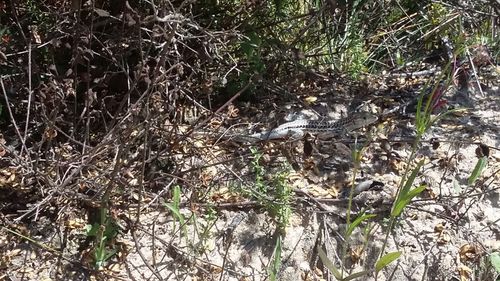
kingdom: Animalia
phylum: Chordata
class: Squamata
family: Lacertidae
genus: Acanthodactylus
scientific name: Acanthodactylus erythrurus
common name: Spiny-footed lizard
